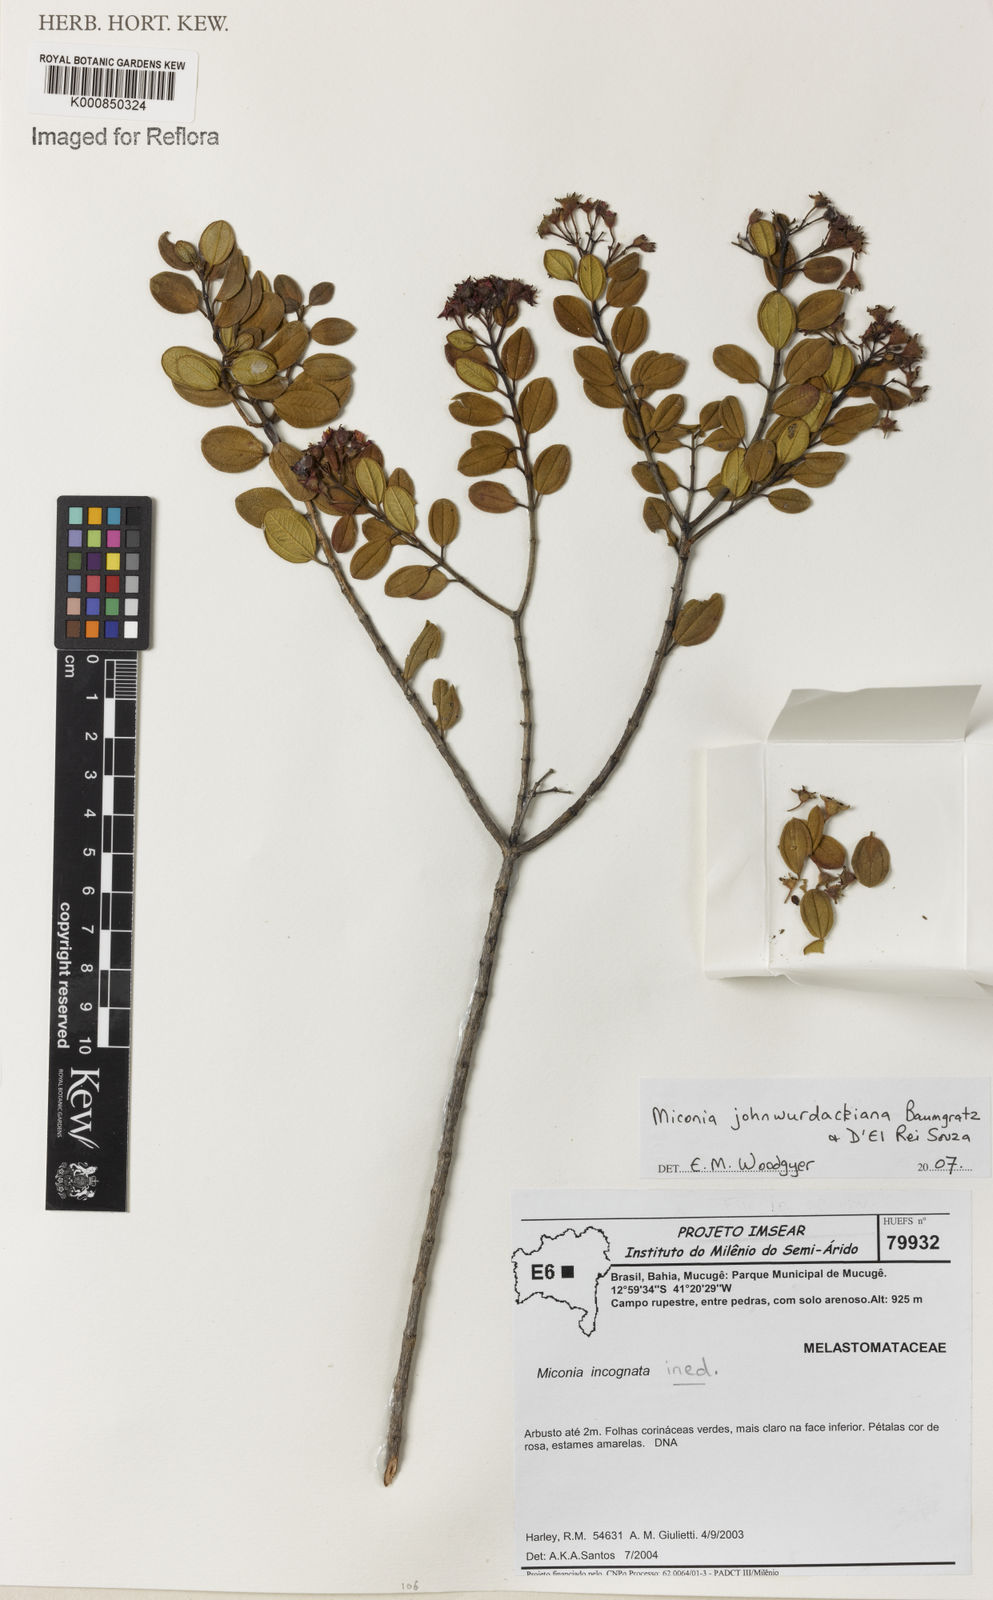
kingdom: Plantae
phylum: Tracheophyta
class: Magnoliopsida
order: Myrtales
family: Melastomataceae
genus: Miconia
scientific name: Miconia
